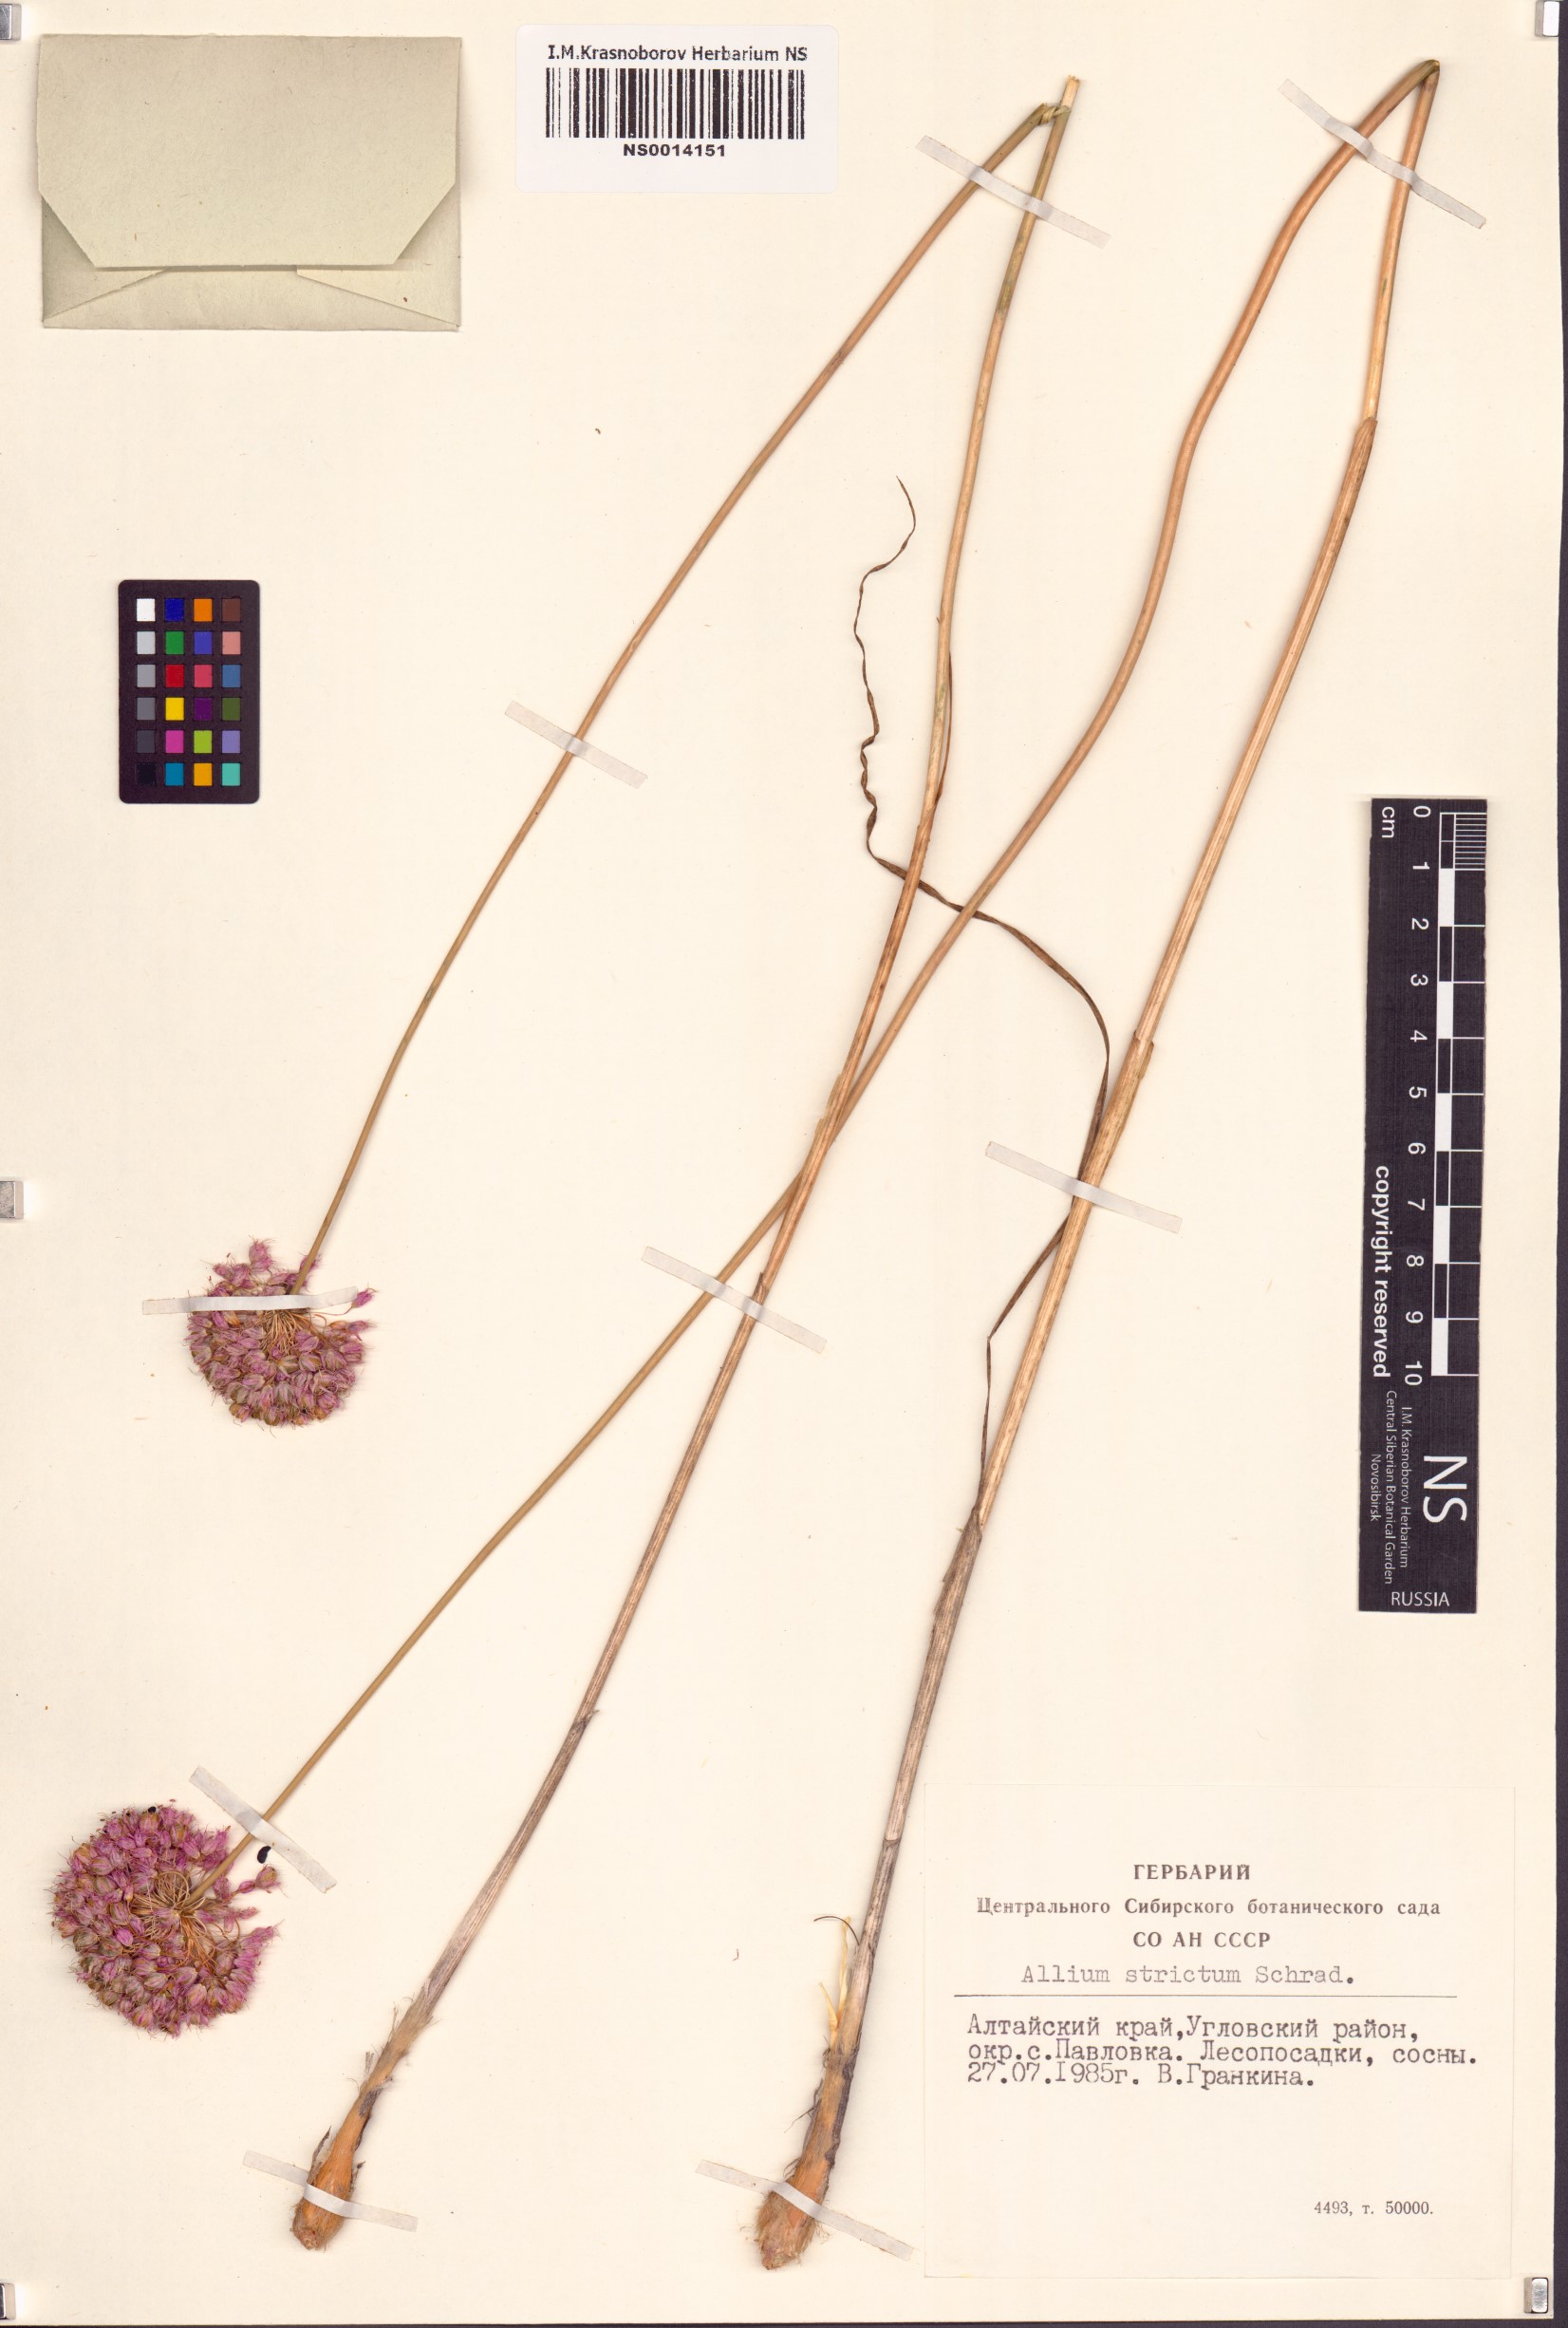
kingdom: Plantae
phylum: Tracheophyta
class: Liliopsida
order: Asparagales
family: Amaryllidaceae
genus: Allium
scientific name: Allium strictum
